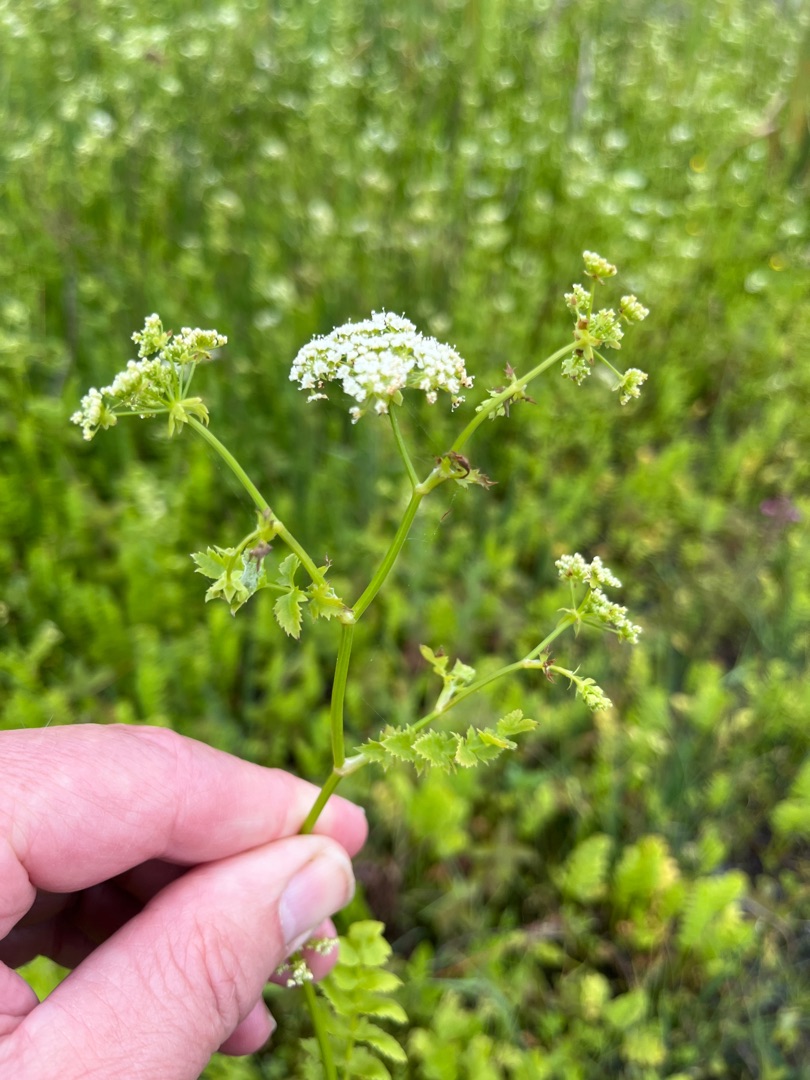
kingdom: Plantae
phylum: Tracheophyta
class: Magnoliopsida
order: Apiales
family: Apiaceae
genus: Berula
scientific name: Berula erecta
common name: Sideskærm
